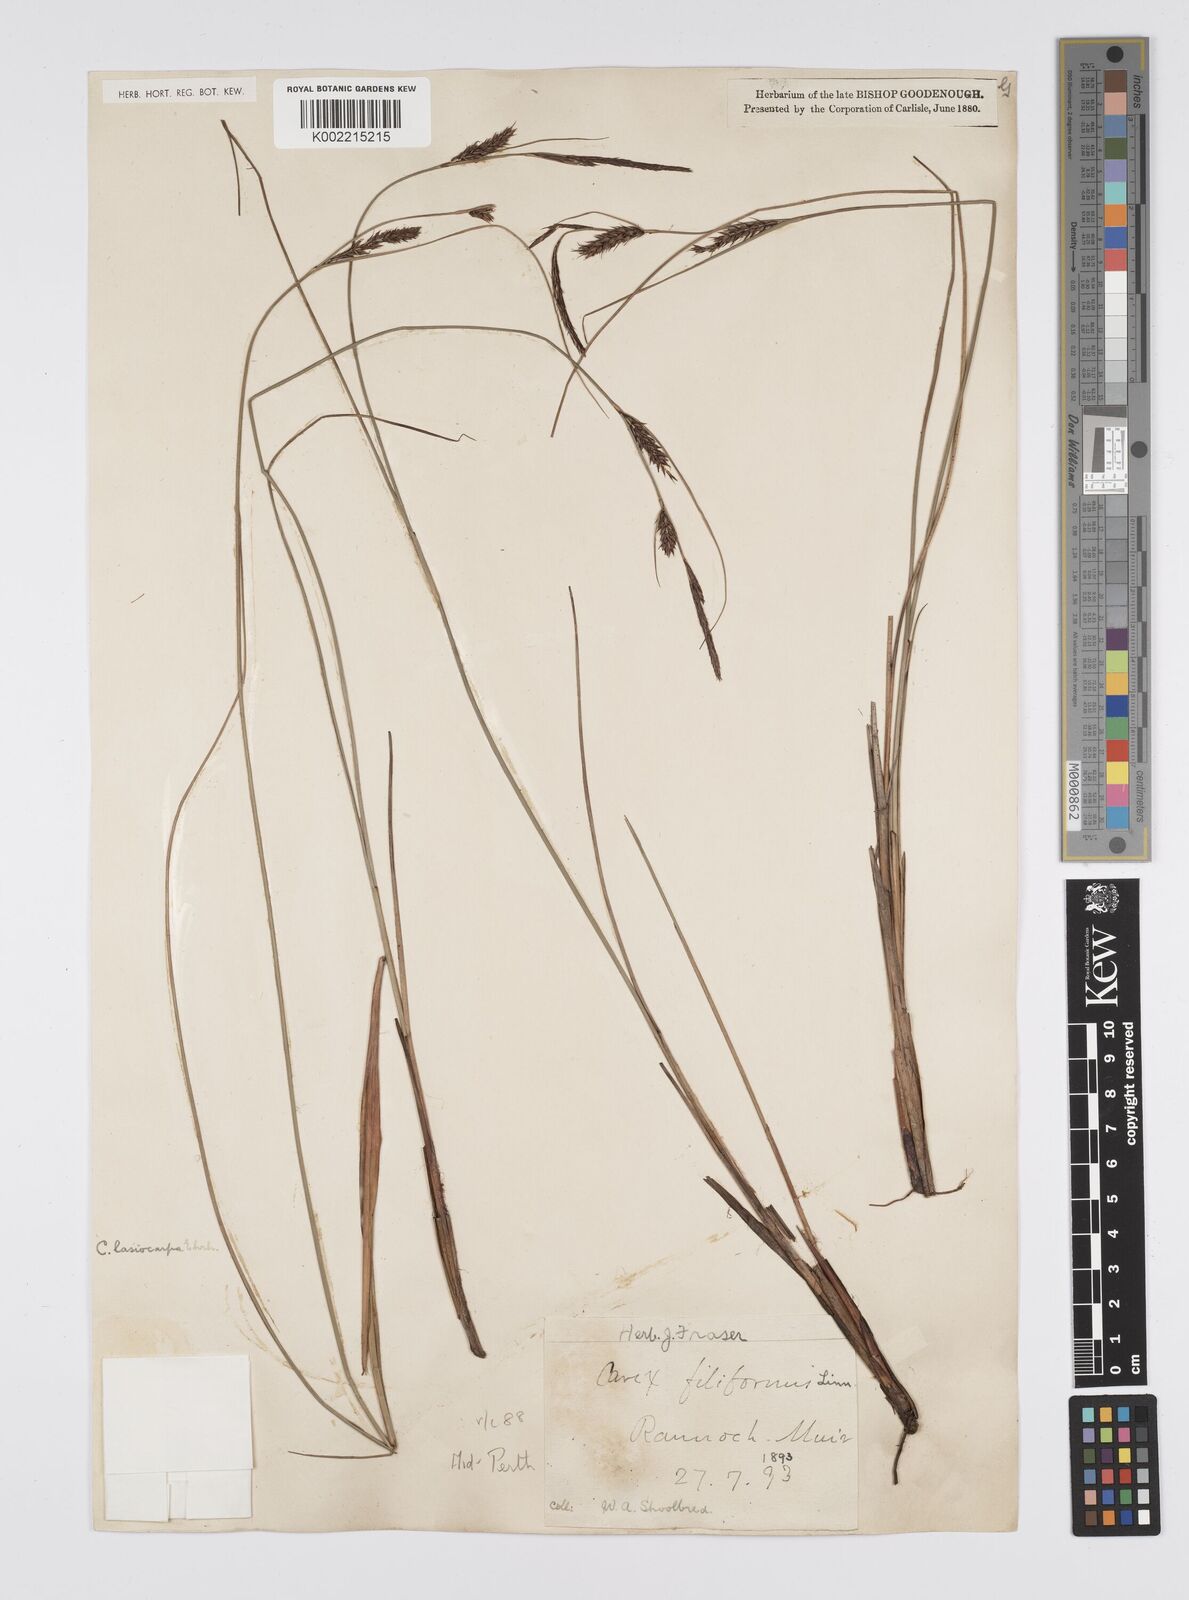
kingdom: Plantae
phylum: Tracheophyta
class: Liliopsida
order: Poales
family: Cyperaceae
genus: Carex
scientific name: Carex lasiocarpa
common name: Slender sedge
